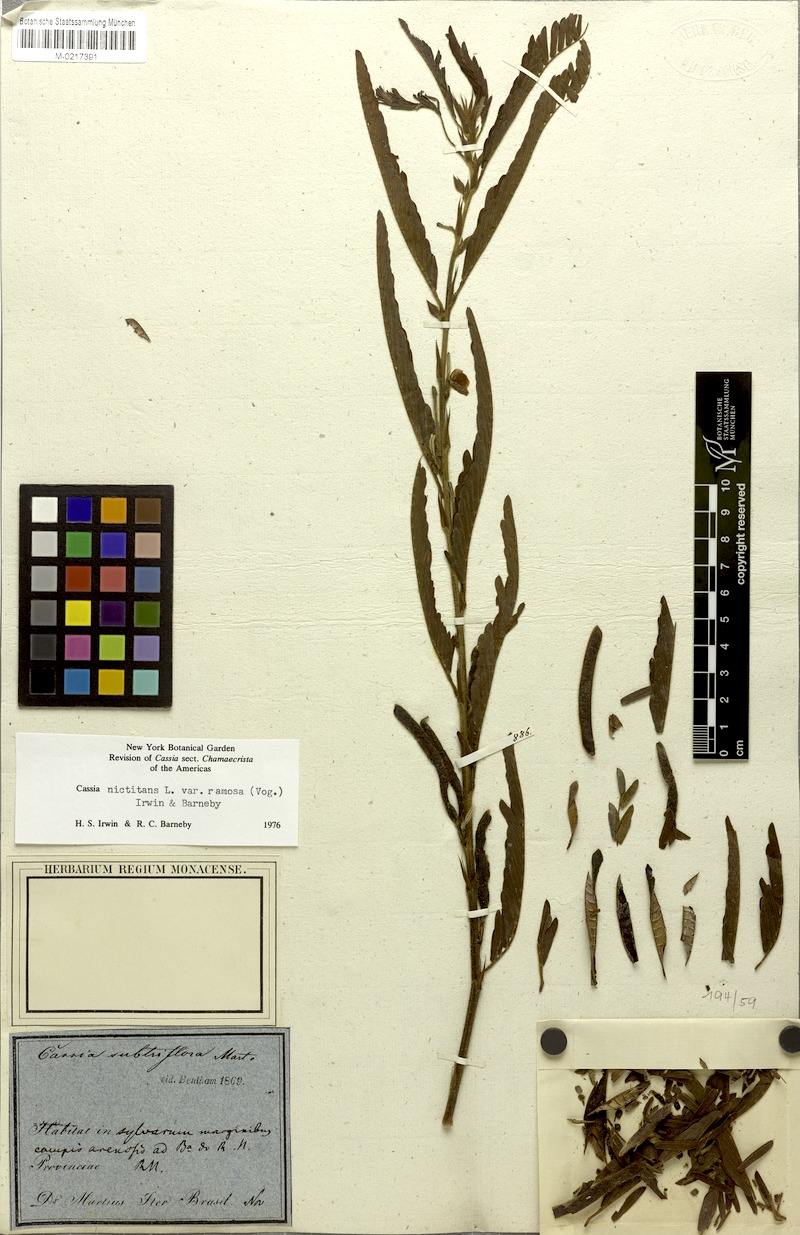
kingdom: Plantae
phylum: Tracheophyta
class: Magnoliopsida
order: Fabales
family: Fabaceae
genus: Chamaecrista
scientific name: Chamaecrista nictitans
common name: Sensitive cassia
